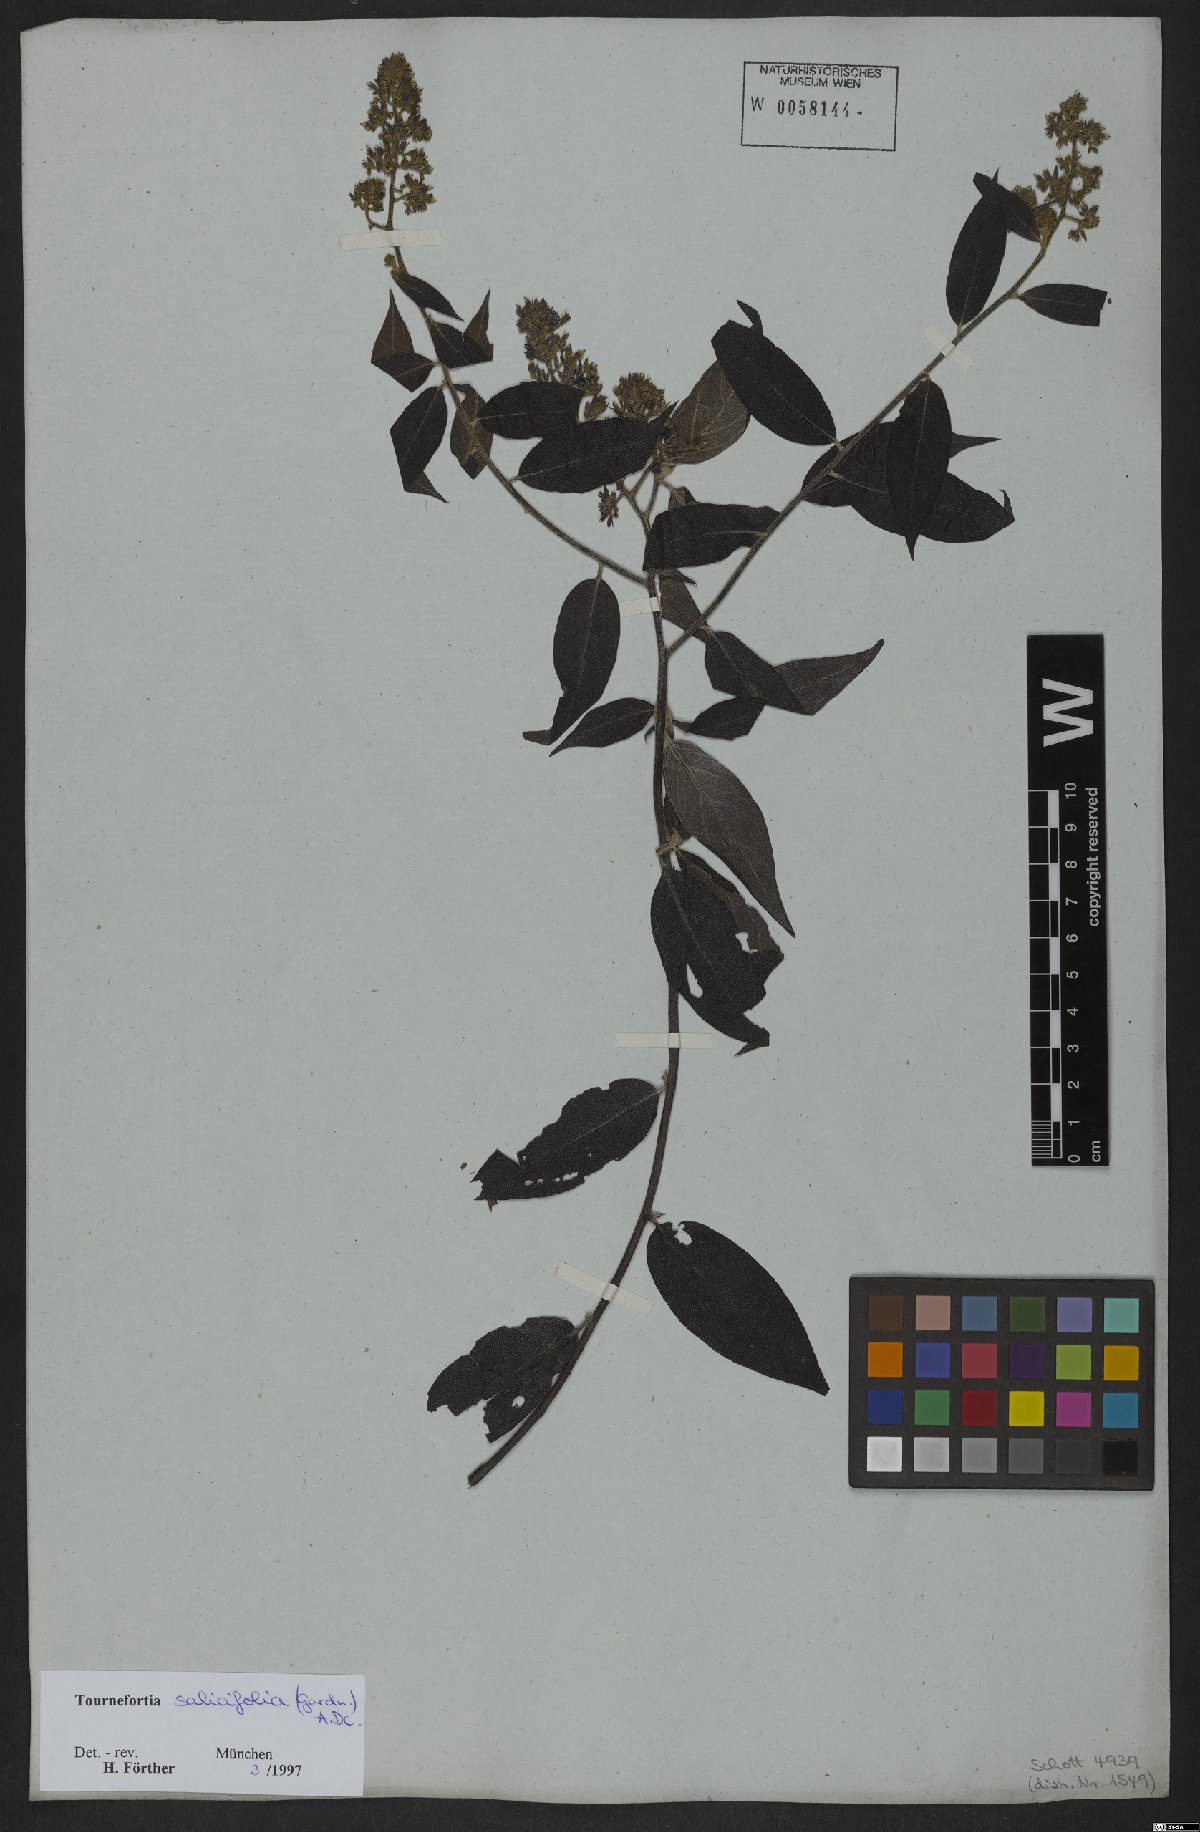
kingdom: Plantae
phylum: Tracheophyta
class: Magnoliopsida
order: Boraginales
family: Heliotropiaceae
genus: Myriopus
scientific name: Myriopus salicifolius
